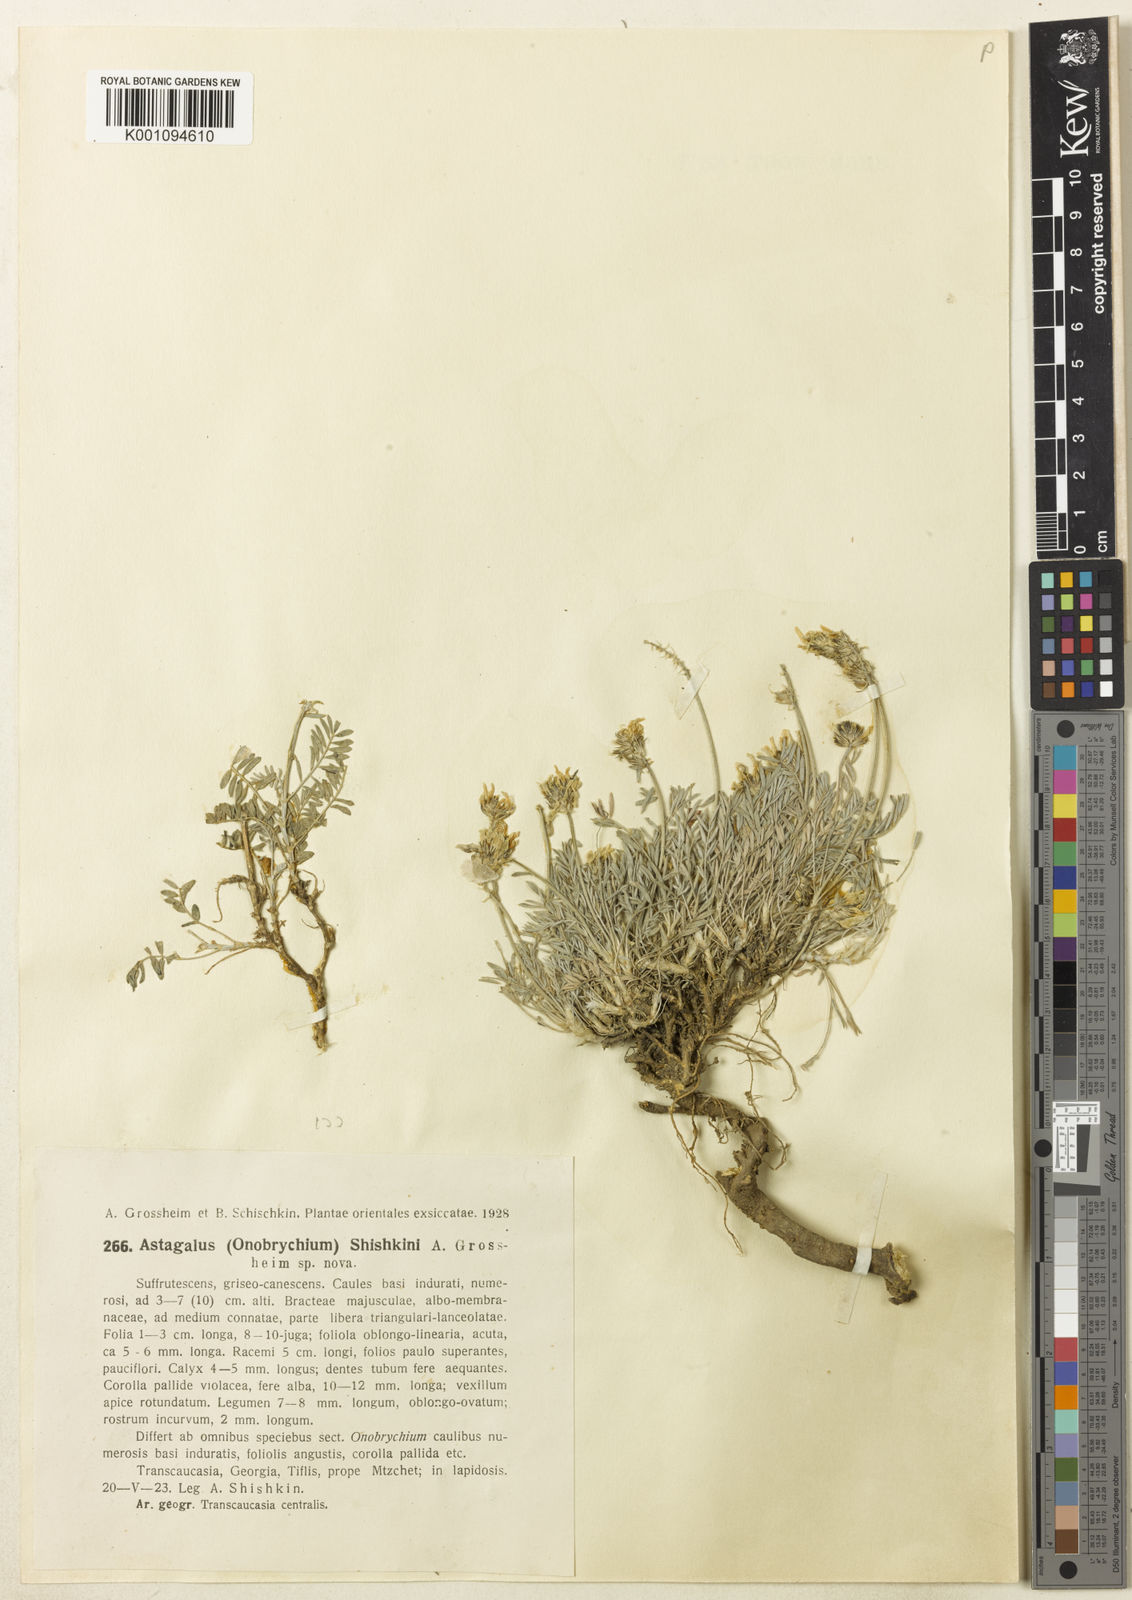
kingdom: Plantae
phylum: Tracheophyta
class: Magnoliopsida
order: Fabales
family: Fabaceae
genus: Astragalus
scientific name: Astragalus
